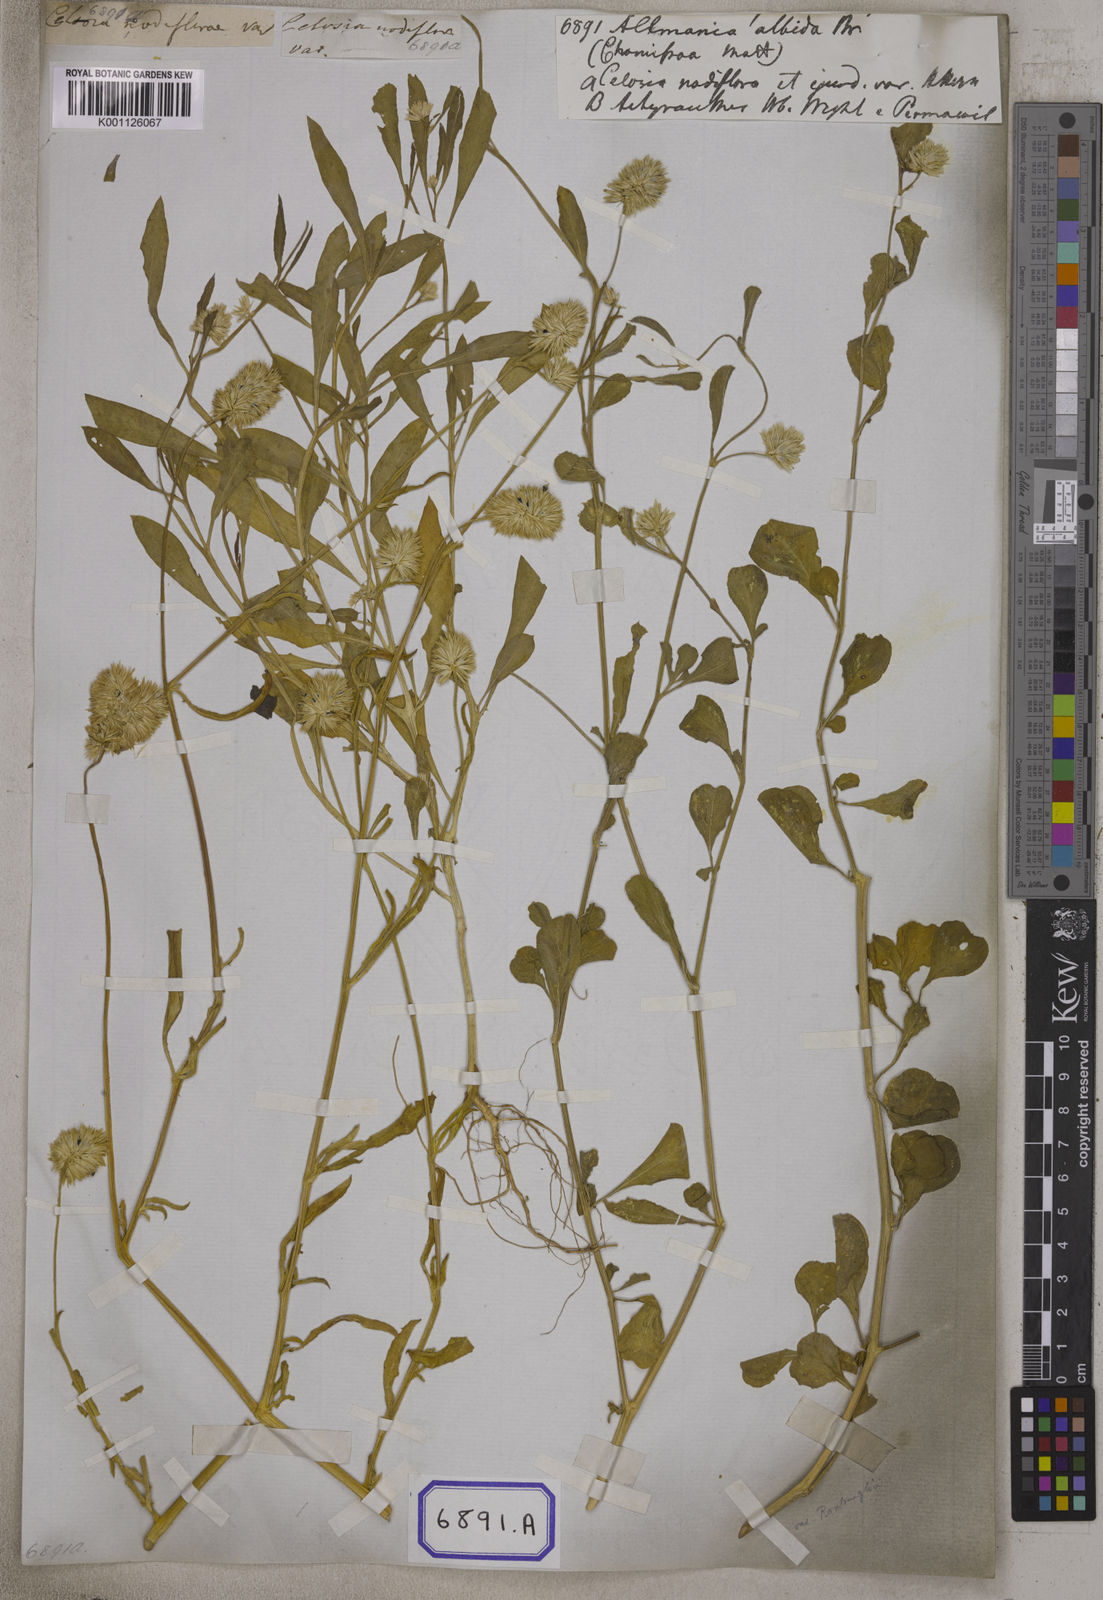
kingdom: Plantae
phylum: Tracheophyta
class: Magnoliopsida
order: Caryophyllales
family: Amaranthaceae
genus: Allmania
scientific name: Allmania
